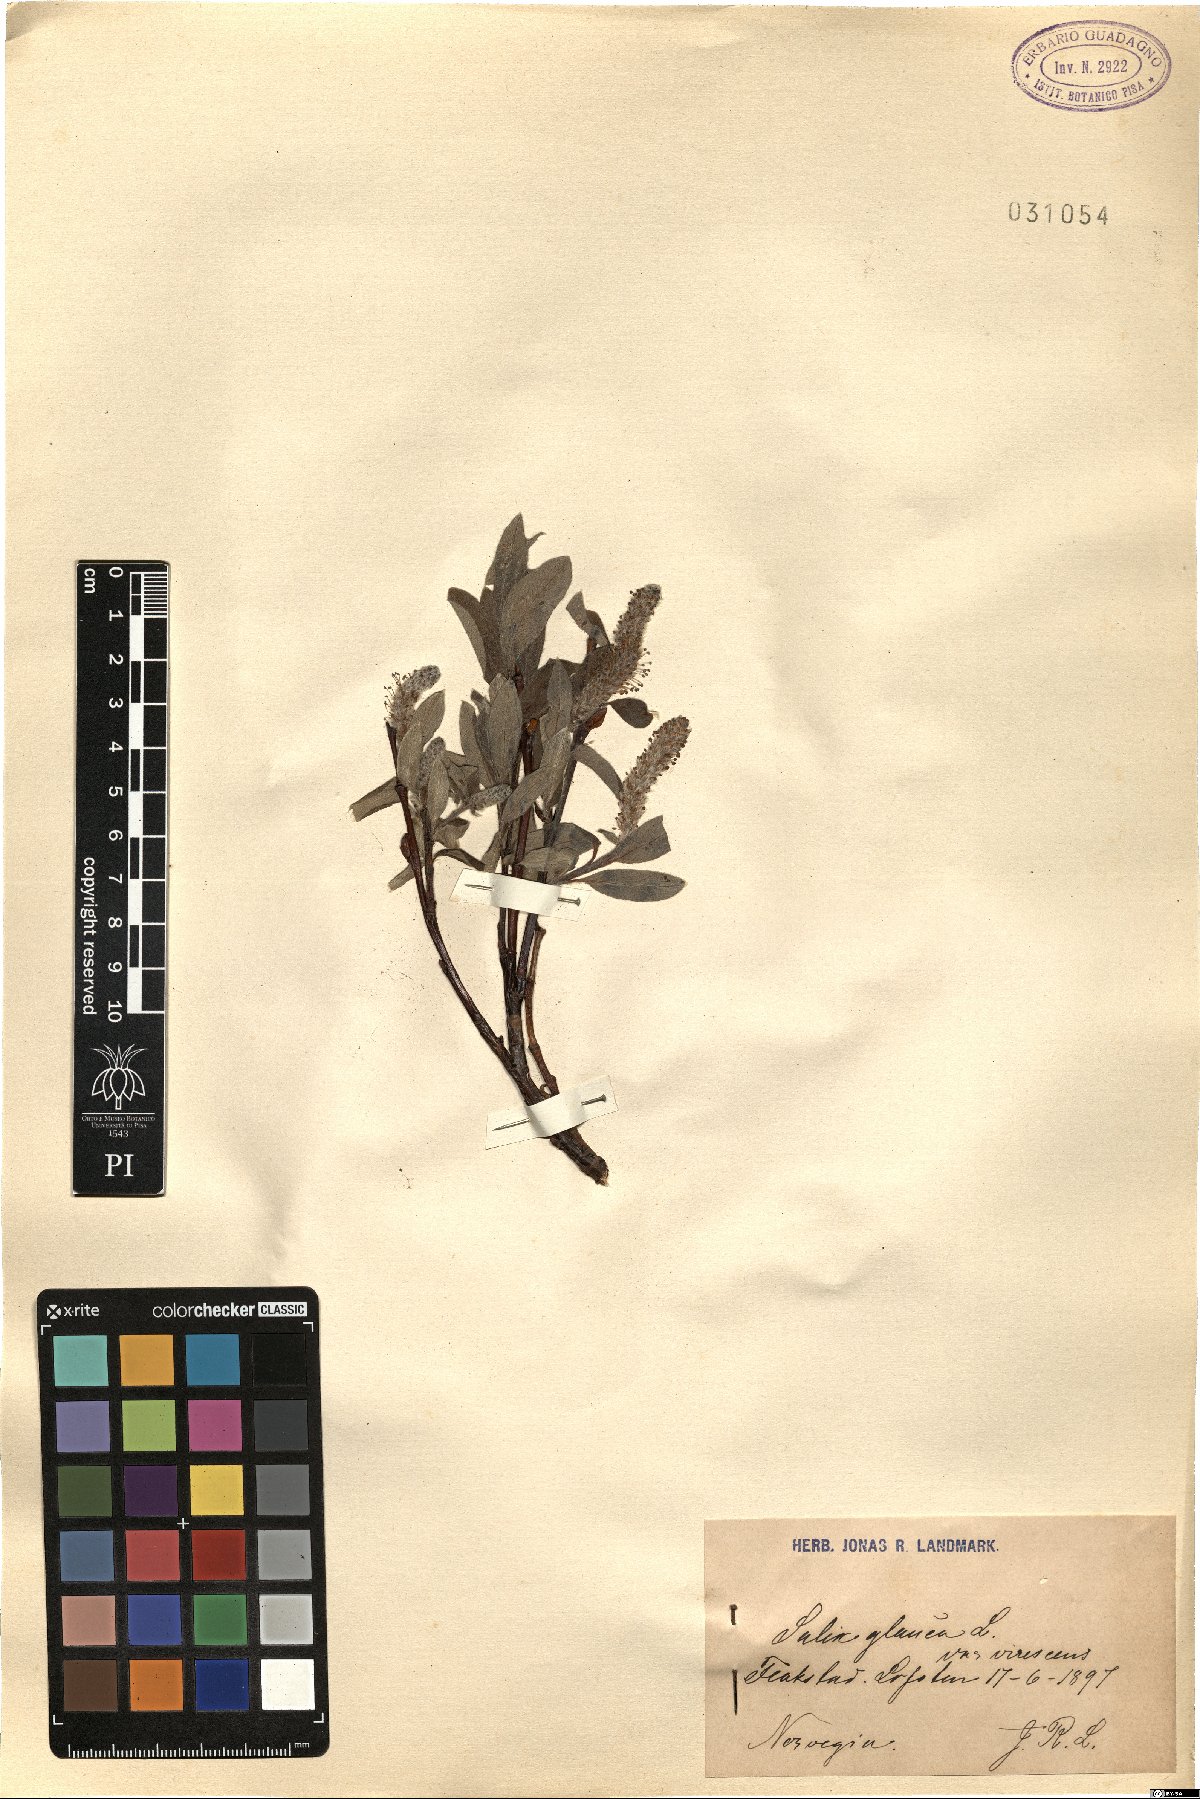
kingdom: Plantae
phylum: Tracheophyta
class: Magnoliopsida
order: Malpighiales
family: Salicaceae
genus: Salix
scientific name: Salix glauca
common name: Glaucous willow
